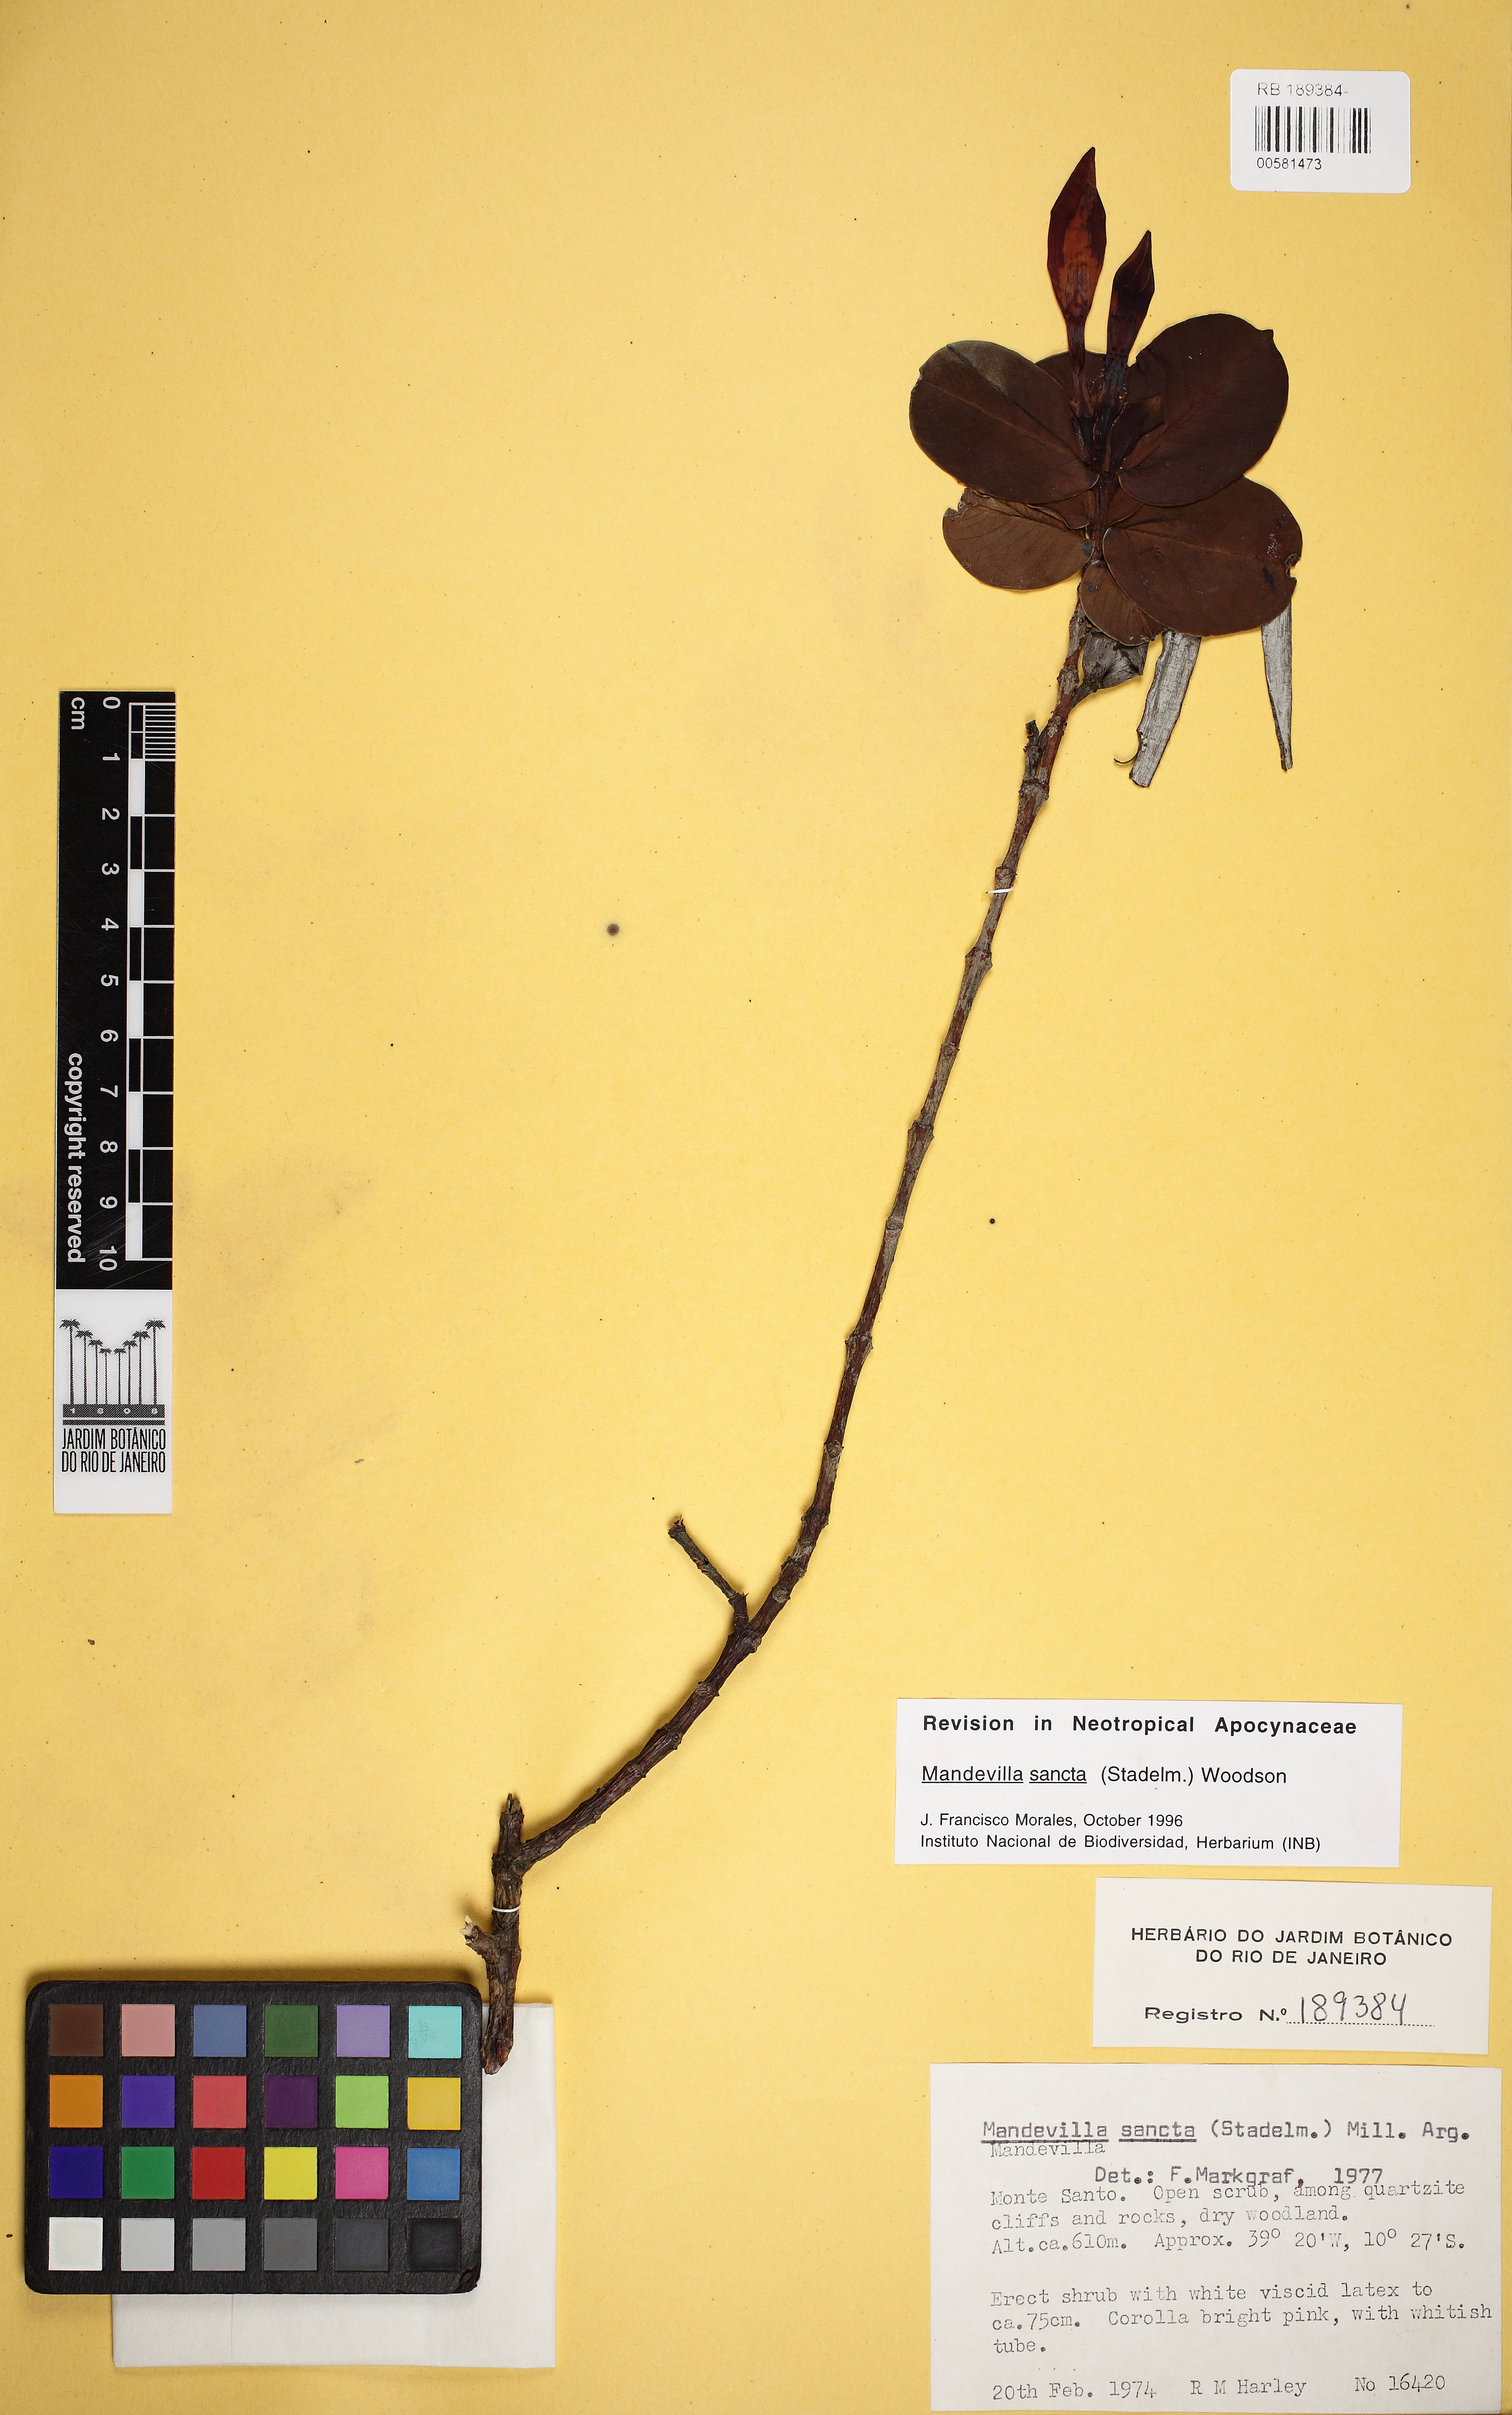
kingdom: Plantae
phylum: Tracheophyta
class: Magnoliopsida
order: Gentianales
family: Apocynaceae
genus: Mandevilla
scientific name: Mandevilla sancta
